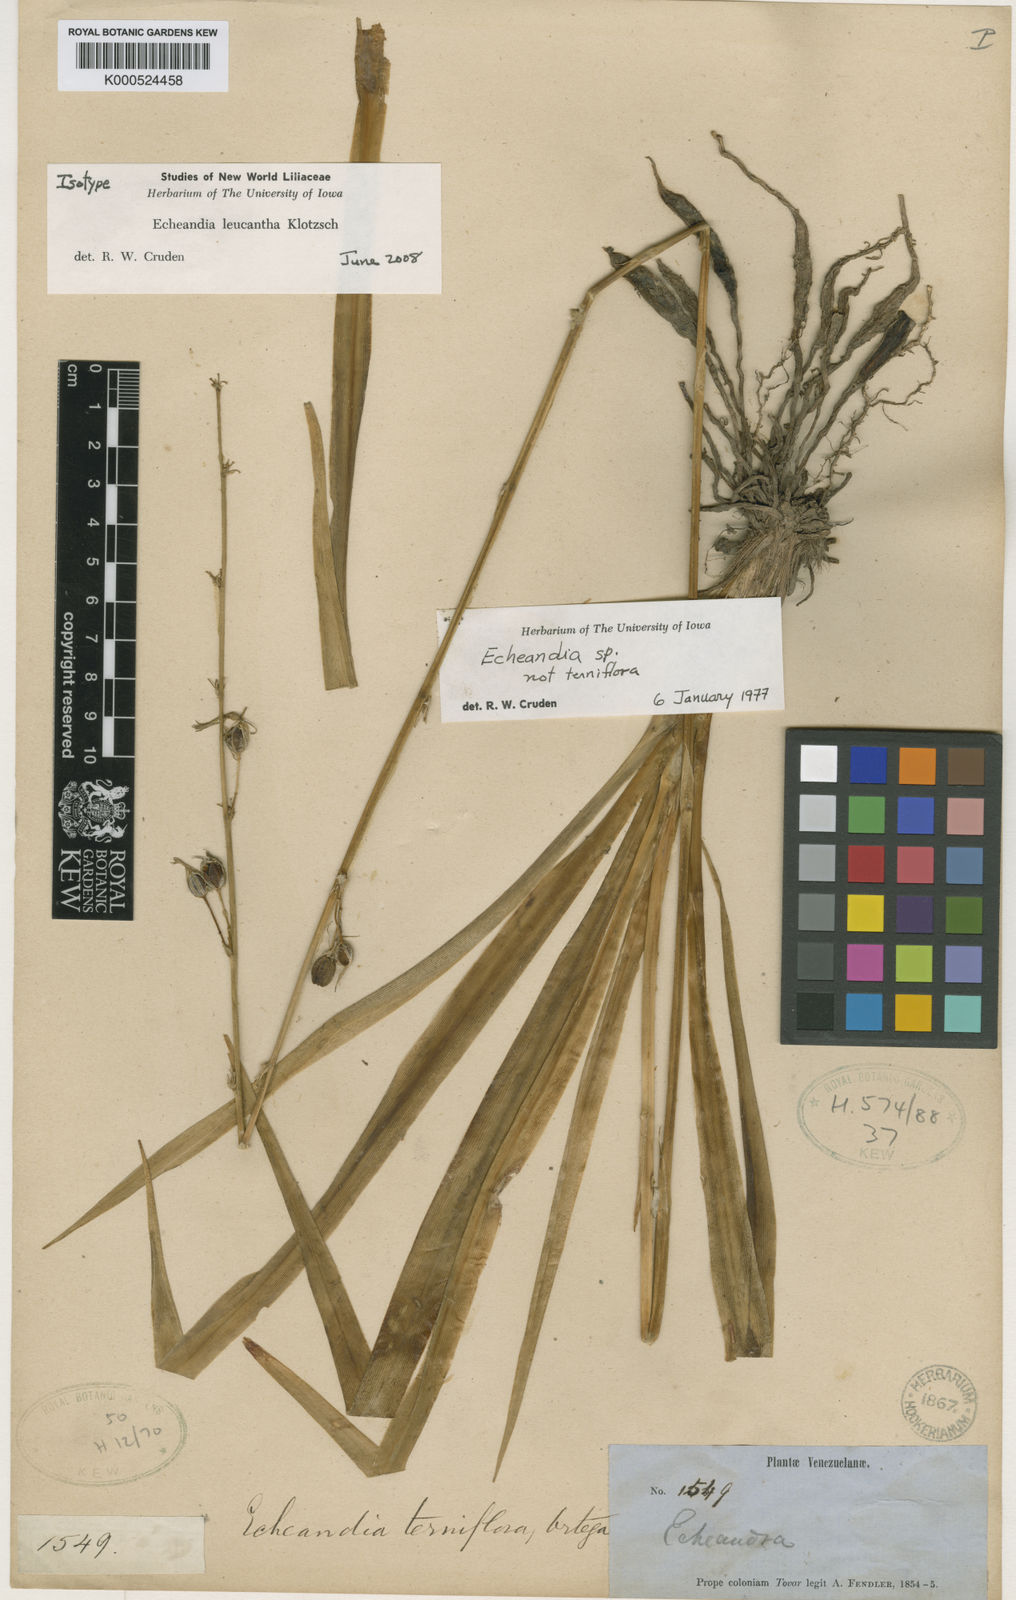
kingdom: Plantae
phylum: Tracheophyta
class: Liliopsida
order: Asparagales
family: Asparagaceae
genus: Echeandia
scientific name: Echeandia leucantha
